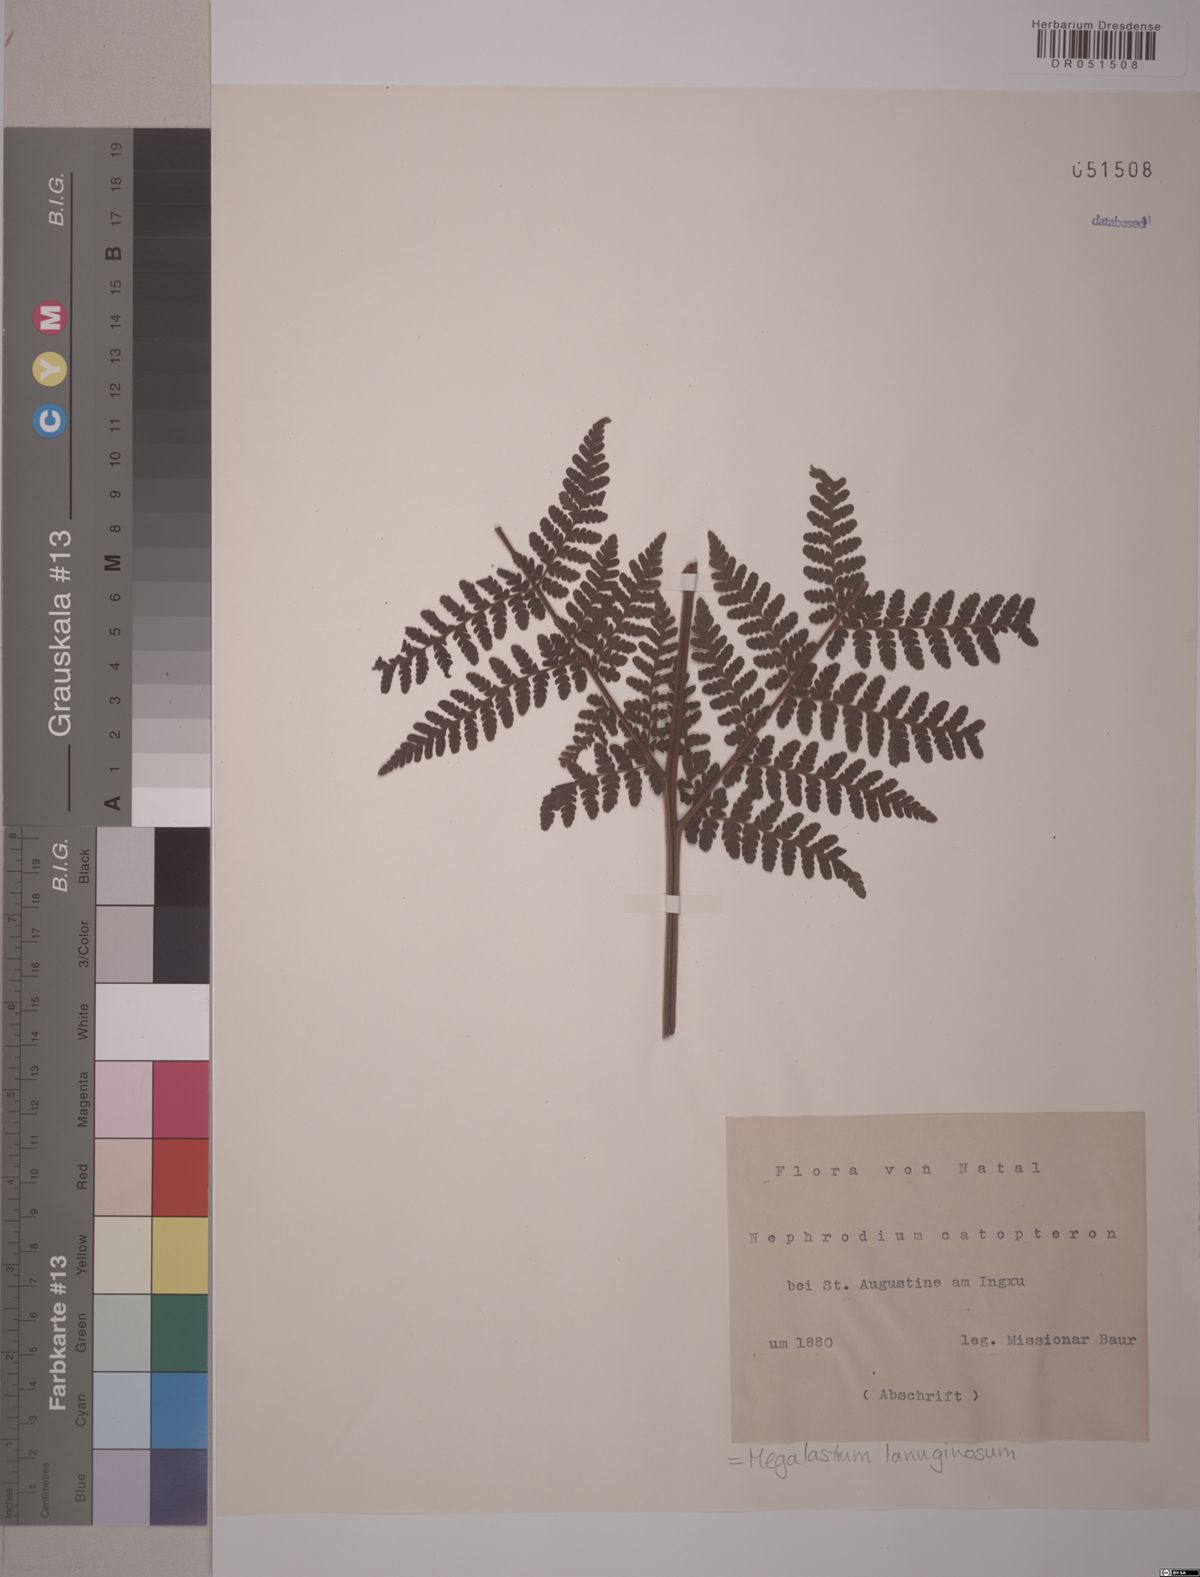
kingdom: Plantae
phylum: Tracheophyta
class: Polypodiopsida
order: Polypodiales
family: Dryopteridaceae
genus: Megalastrum
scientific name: Megalastrum lanuginosum
